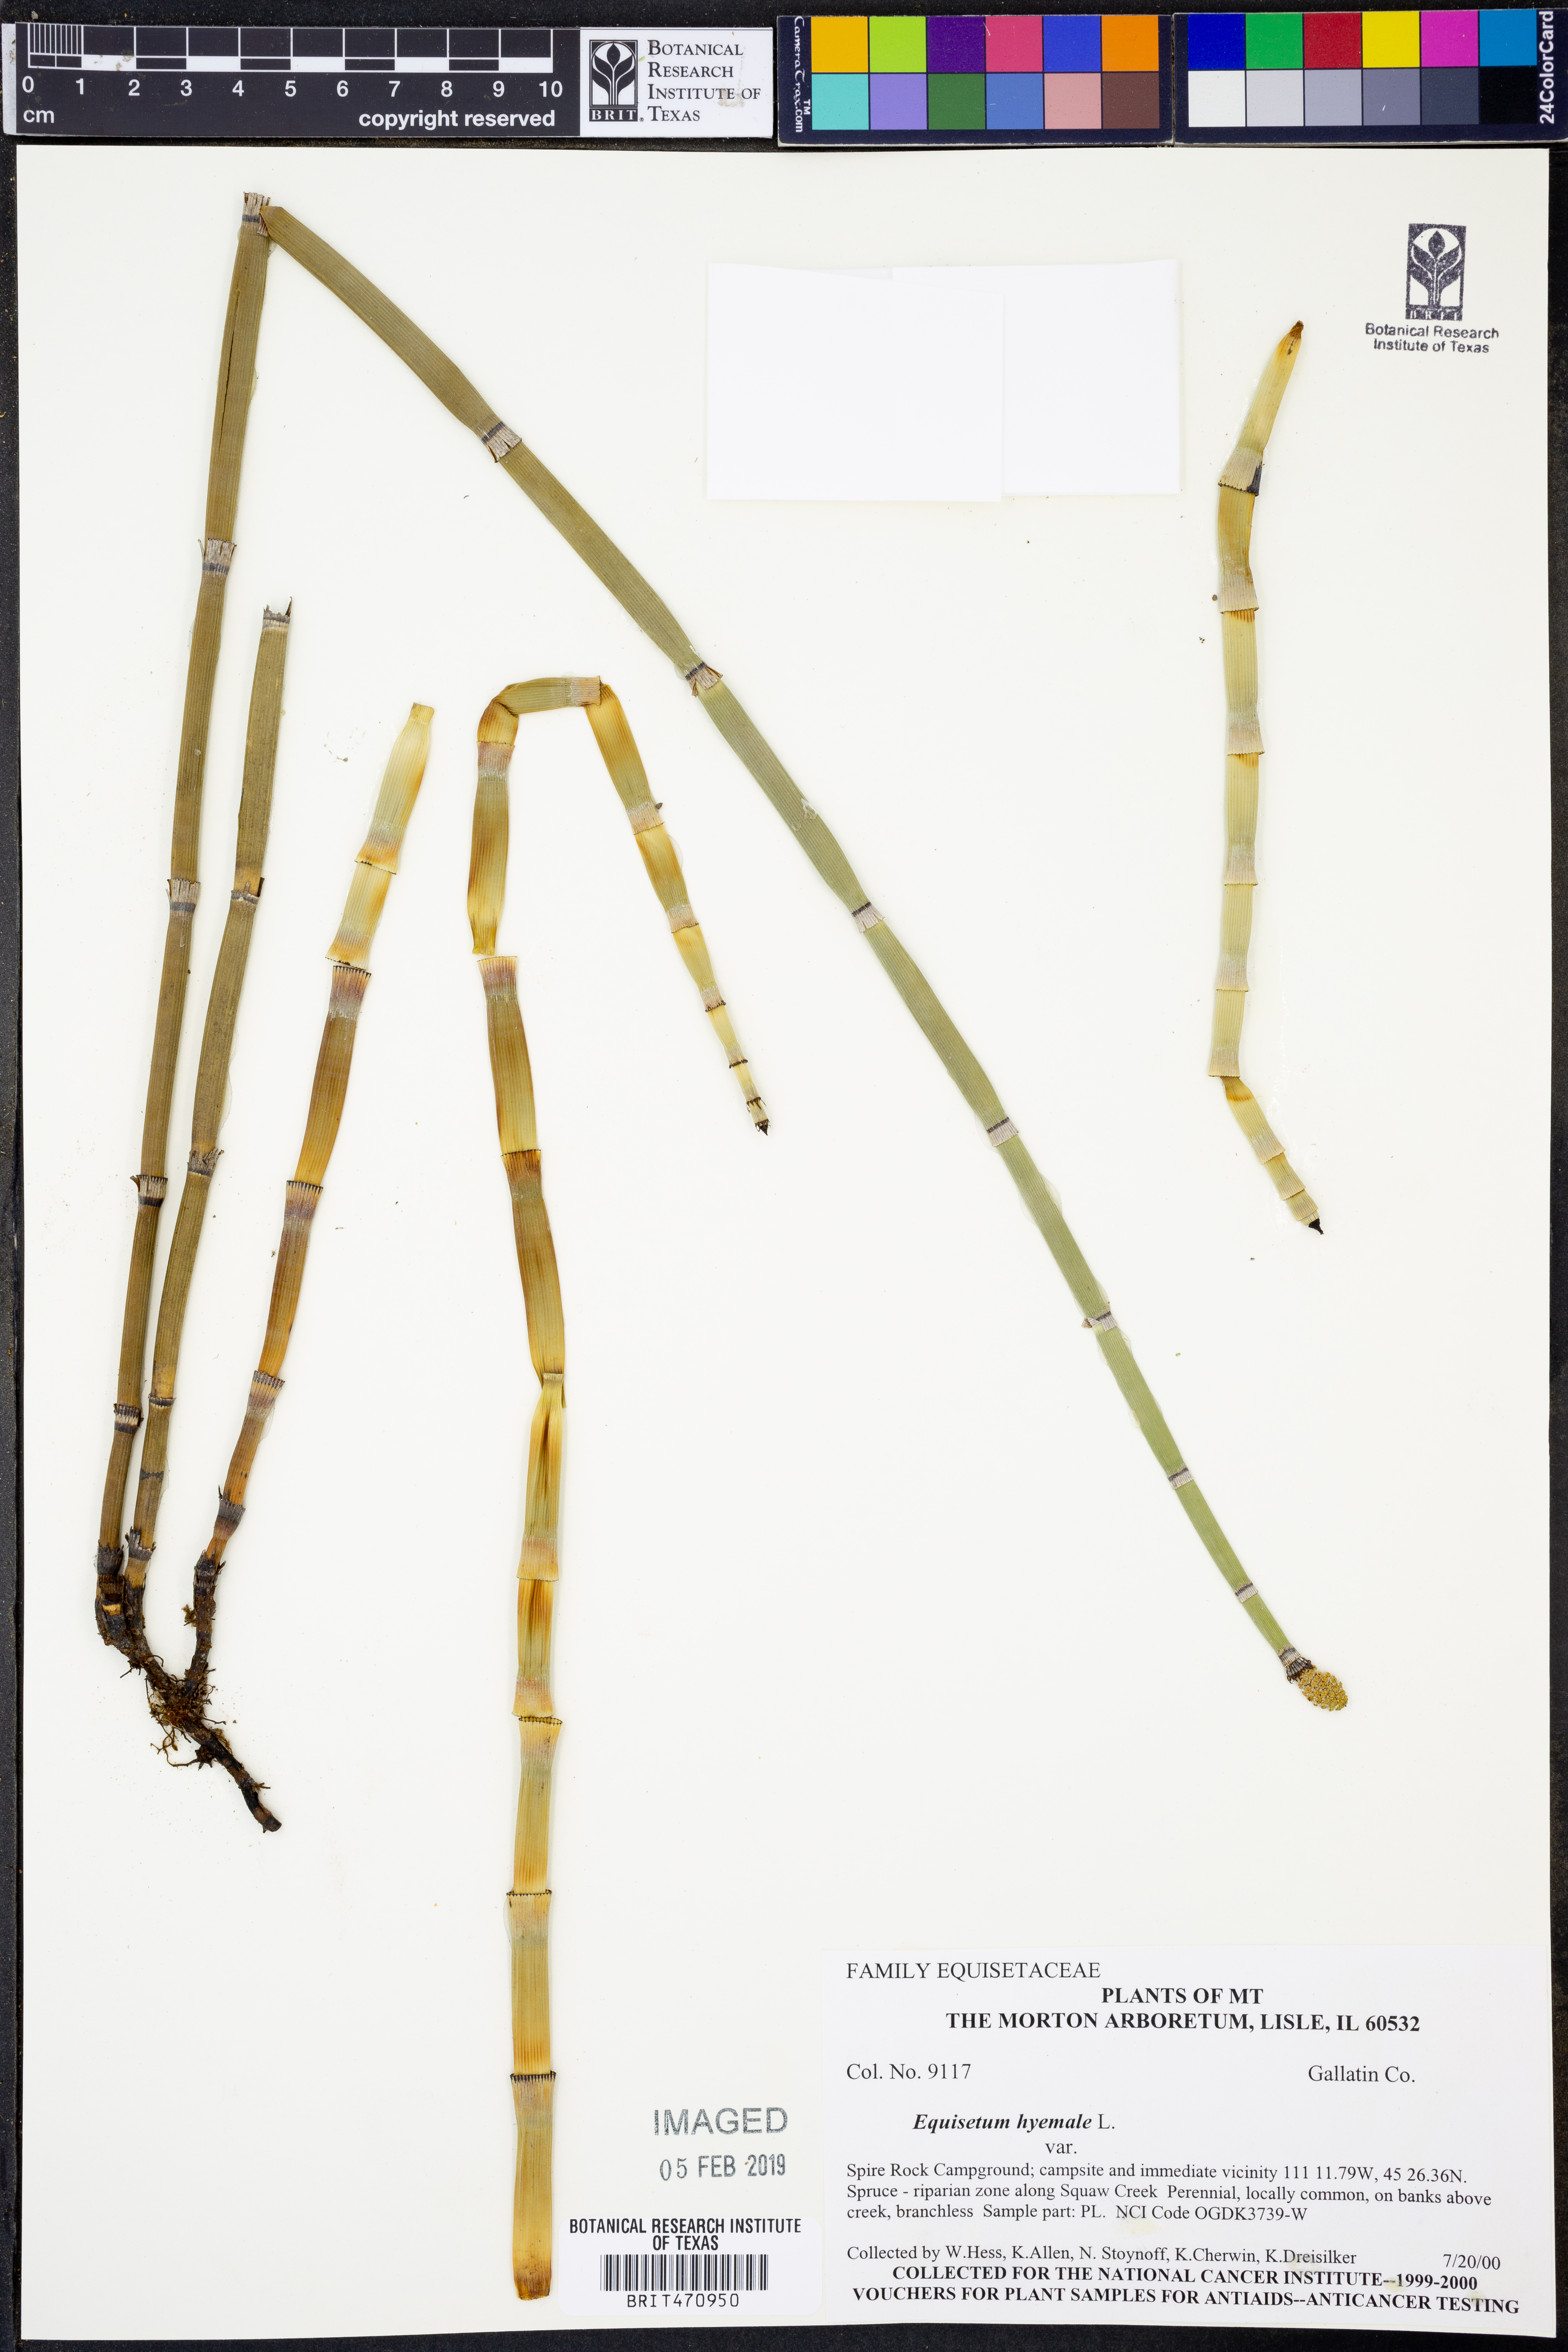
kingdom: Plantae
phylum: Tracheophyta
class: Polypodiopsida
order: Equisetales
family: Equisetaceae
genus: Equisetum
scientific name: Equisetum hyemale
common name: Rough horsetail
